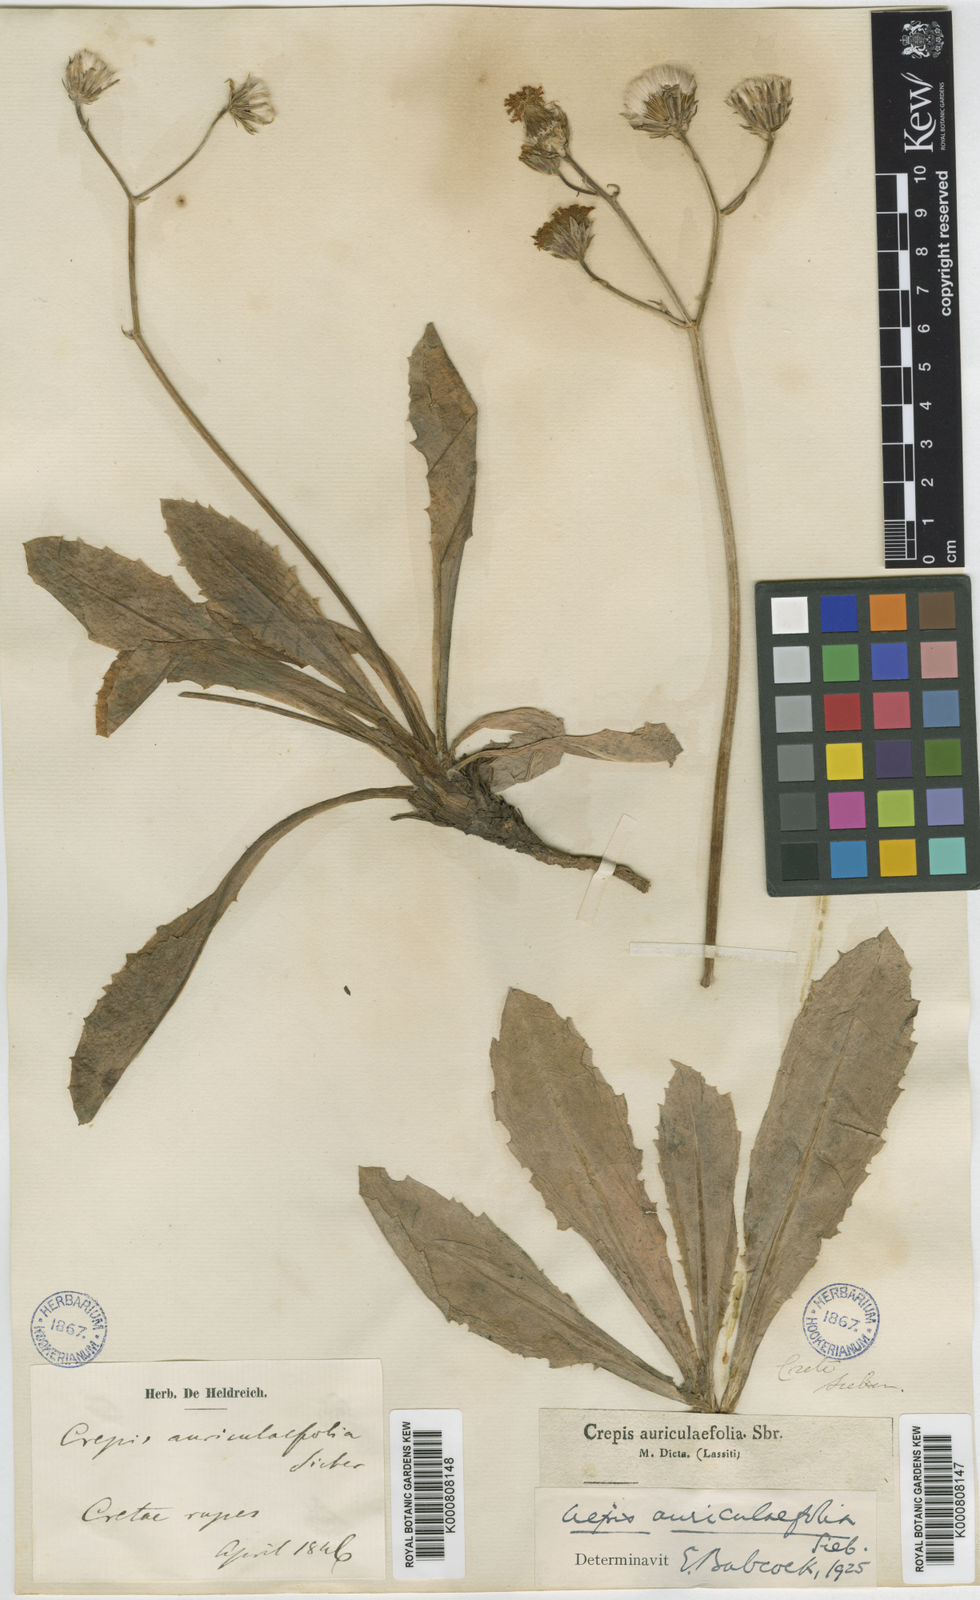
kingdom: Plantae
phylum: Tracheophyta
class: Magnoliopsida
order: Asterales
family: Asteraceae
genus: Crepis
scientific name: Crepis
